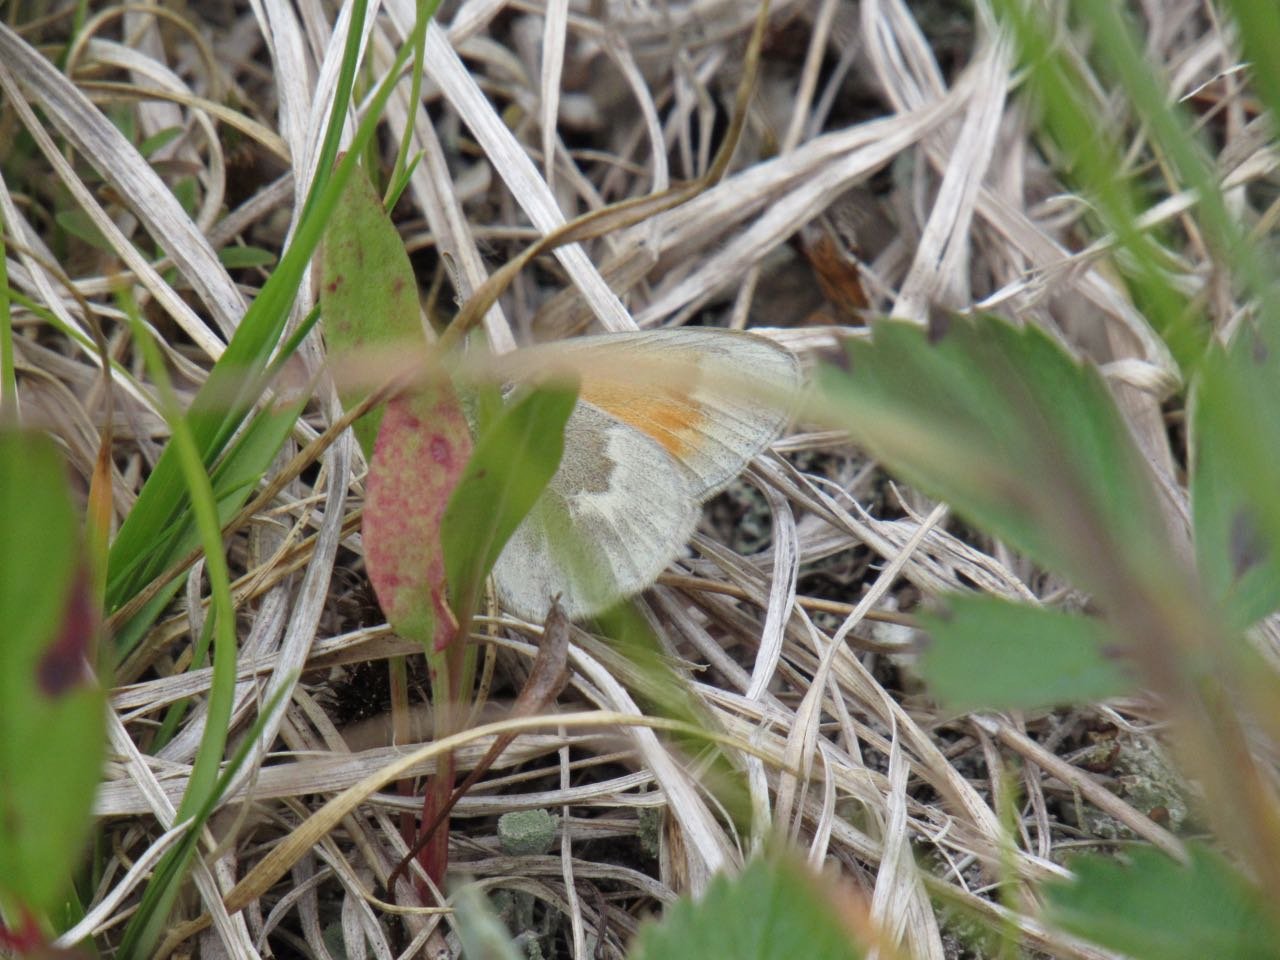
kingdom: Animalia
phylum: Arthropoda
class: Insecta
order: Lepidoptera
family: Nymphalidae
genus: Coenonympha
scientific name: Coenonympha tullia
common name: Large Heath
